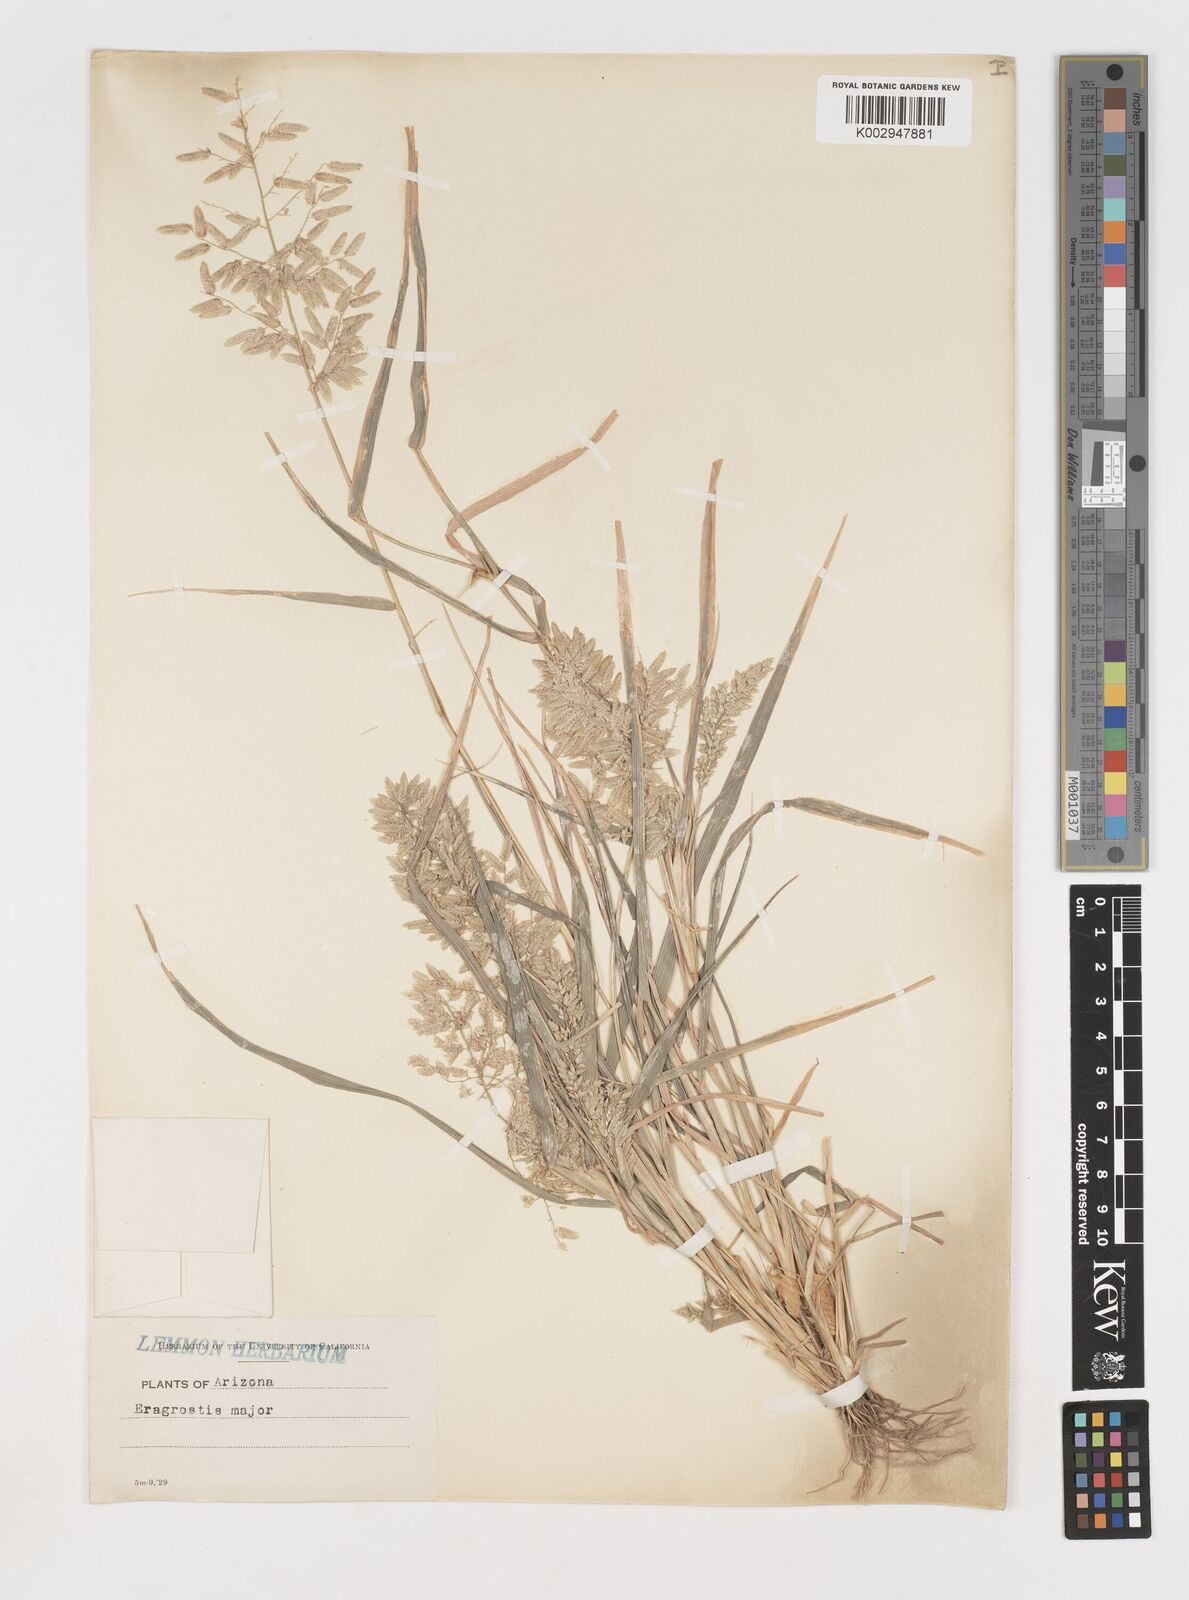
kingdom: Plantae
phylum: Tracheophyta
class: Liliopsida
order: Poales
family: Poaceae
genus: Eragrostis
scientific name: Eragrostis cilianensis
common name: Stinkgrass
